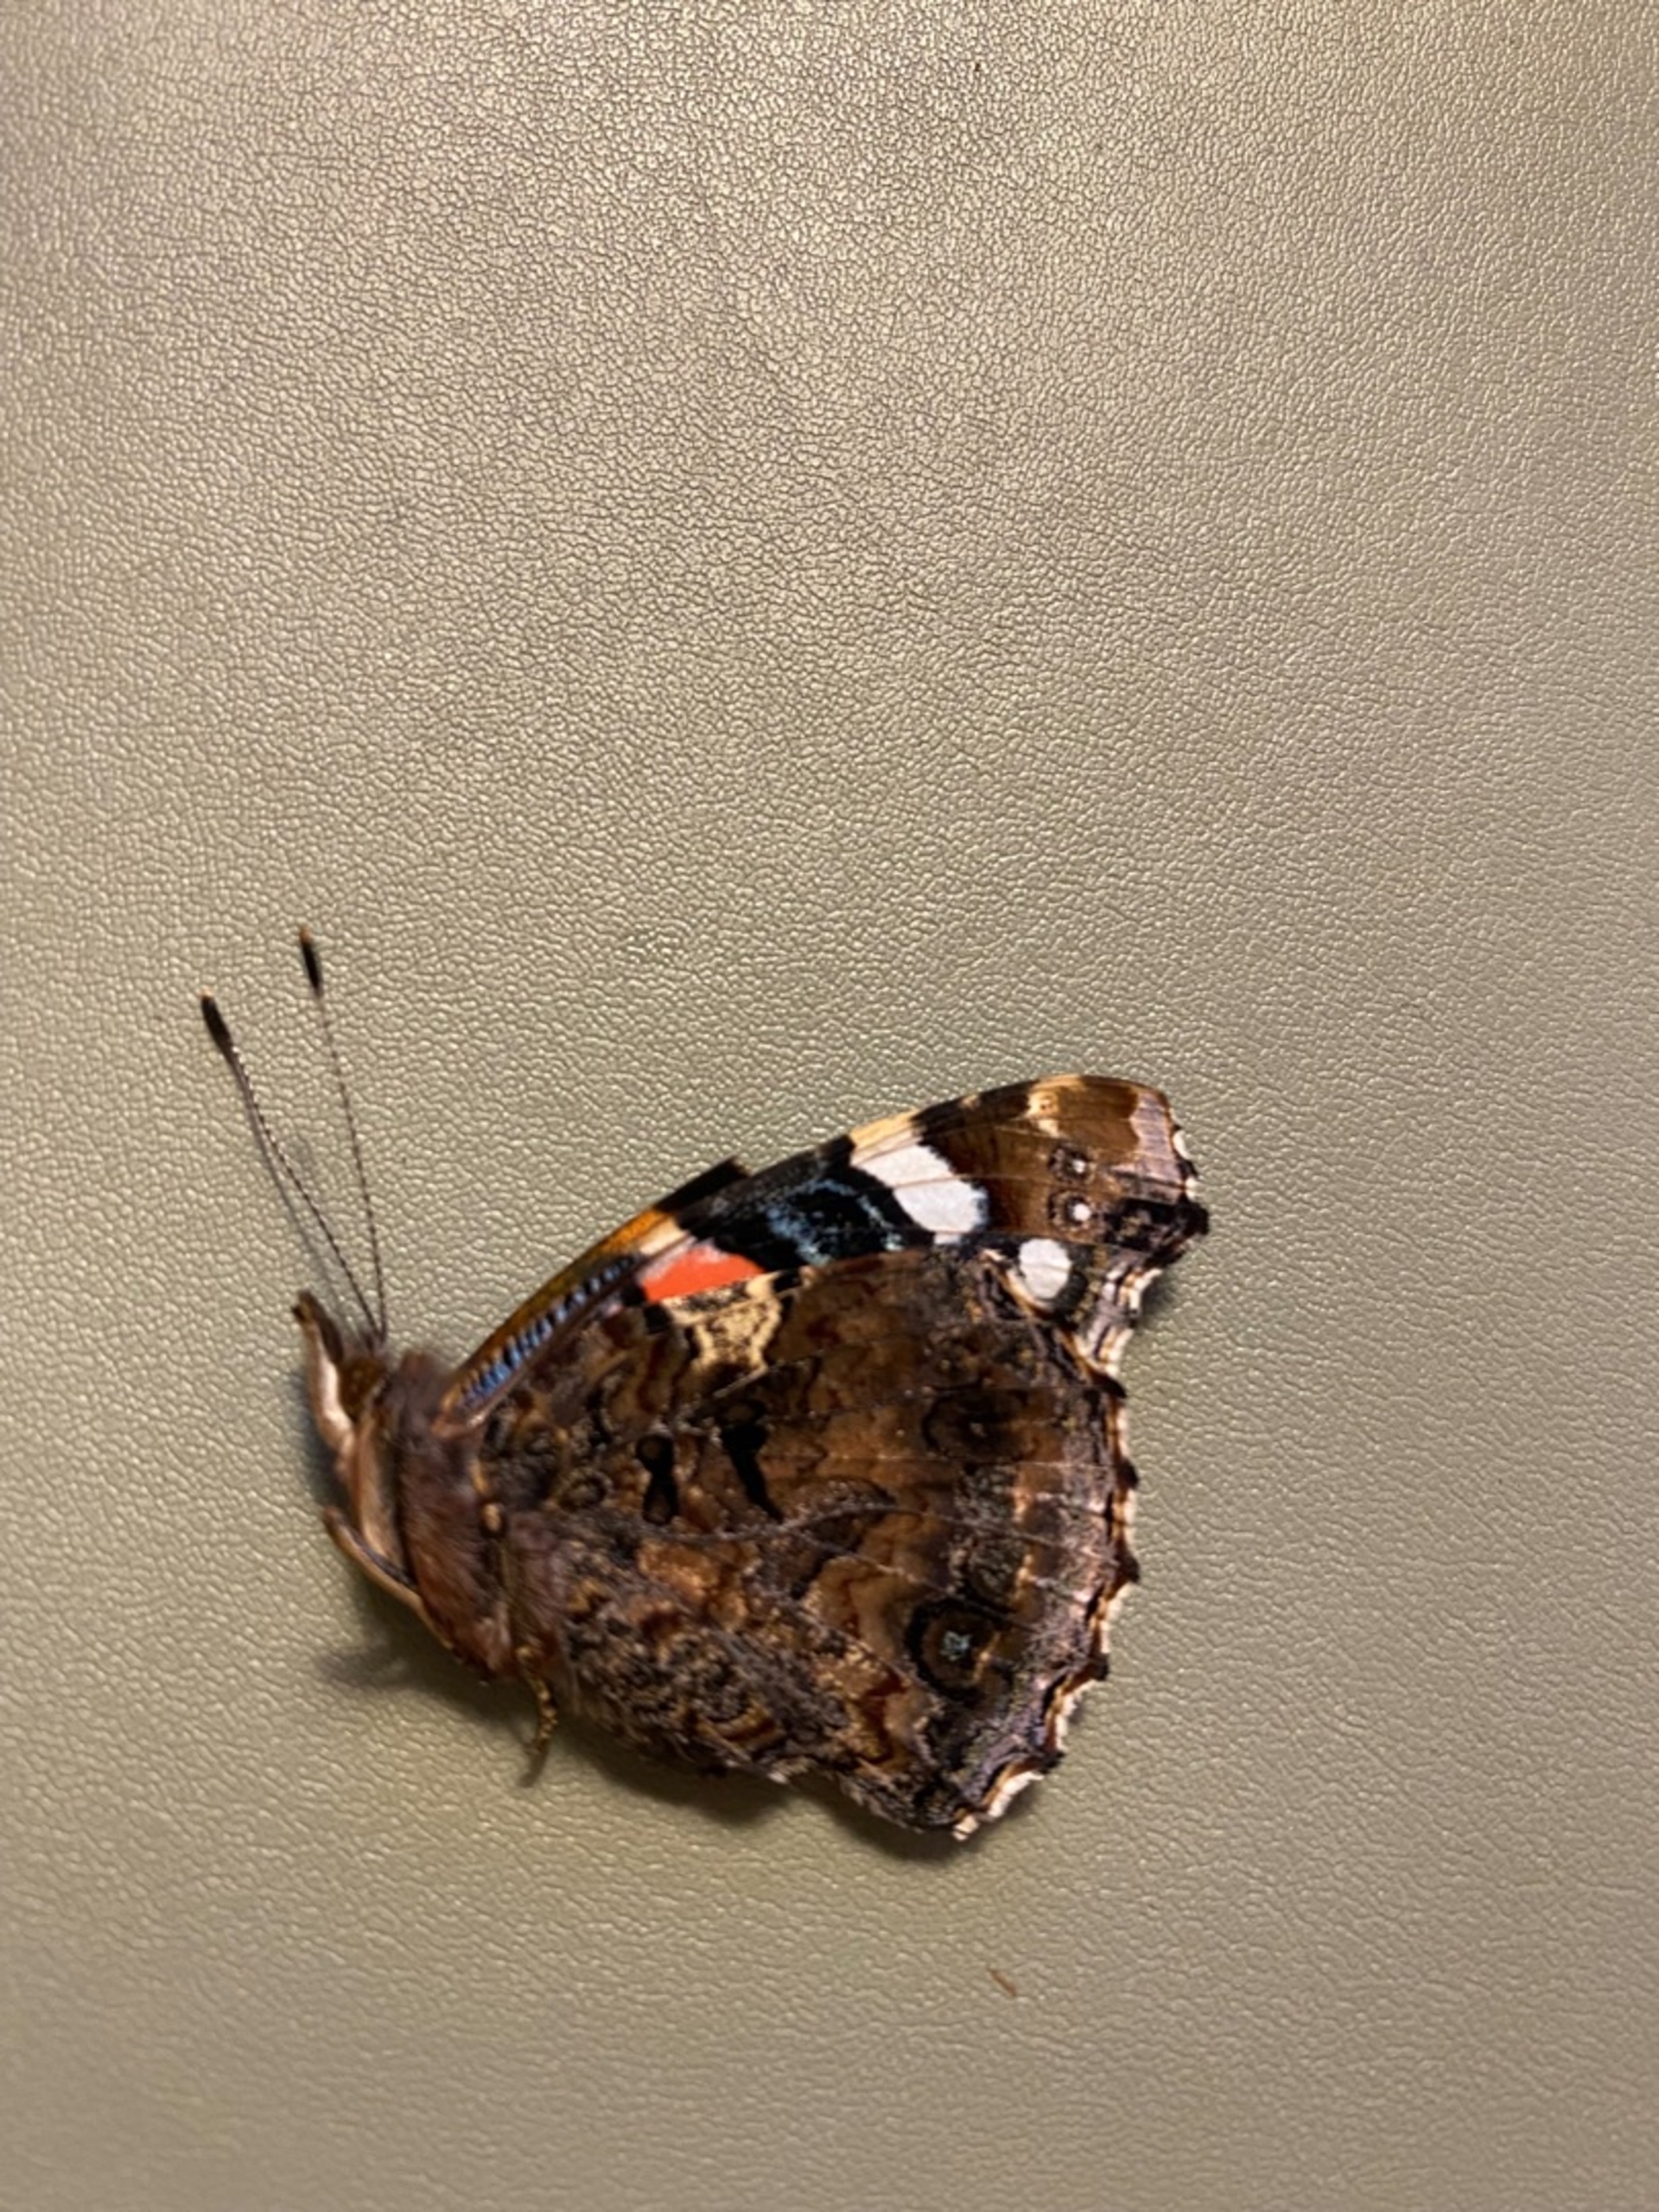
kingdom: Animalia
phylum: Arthropoda
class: Insecta
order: Lepidoptera
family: Nymphalidae
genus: Vanessa
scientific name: Vanessa atalanta
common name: Admiral
